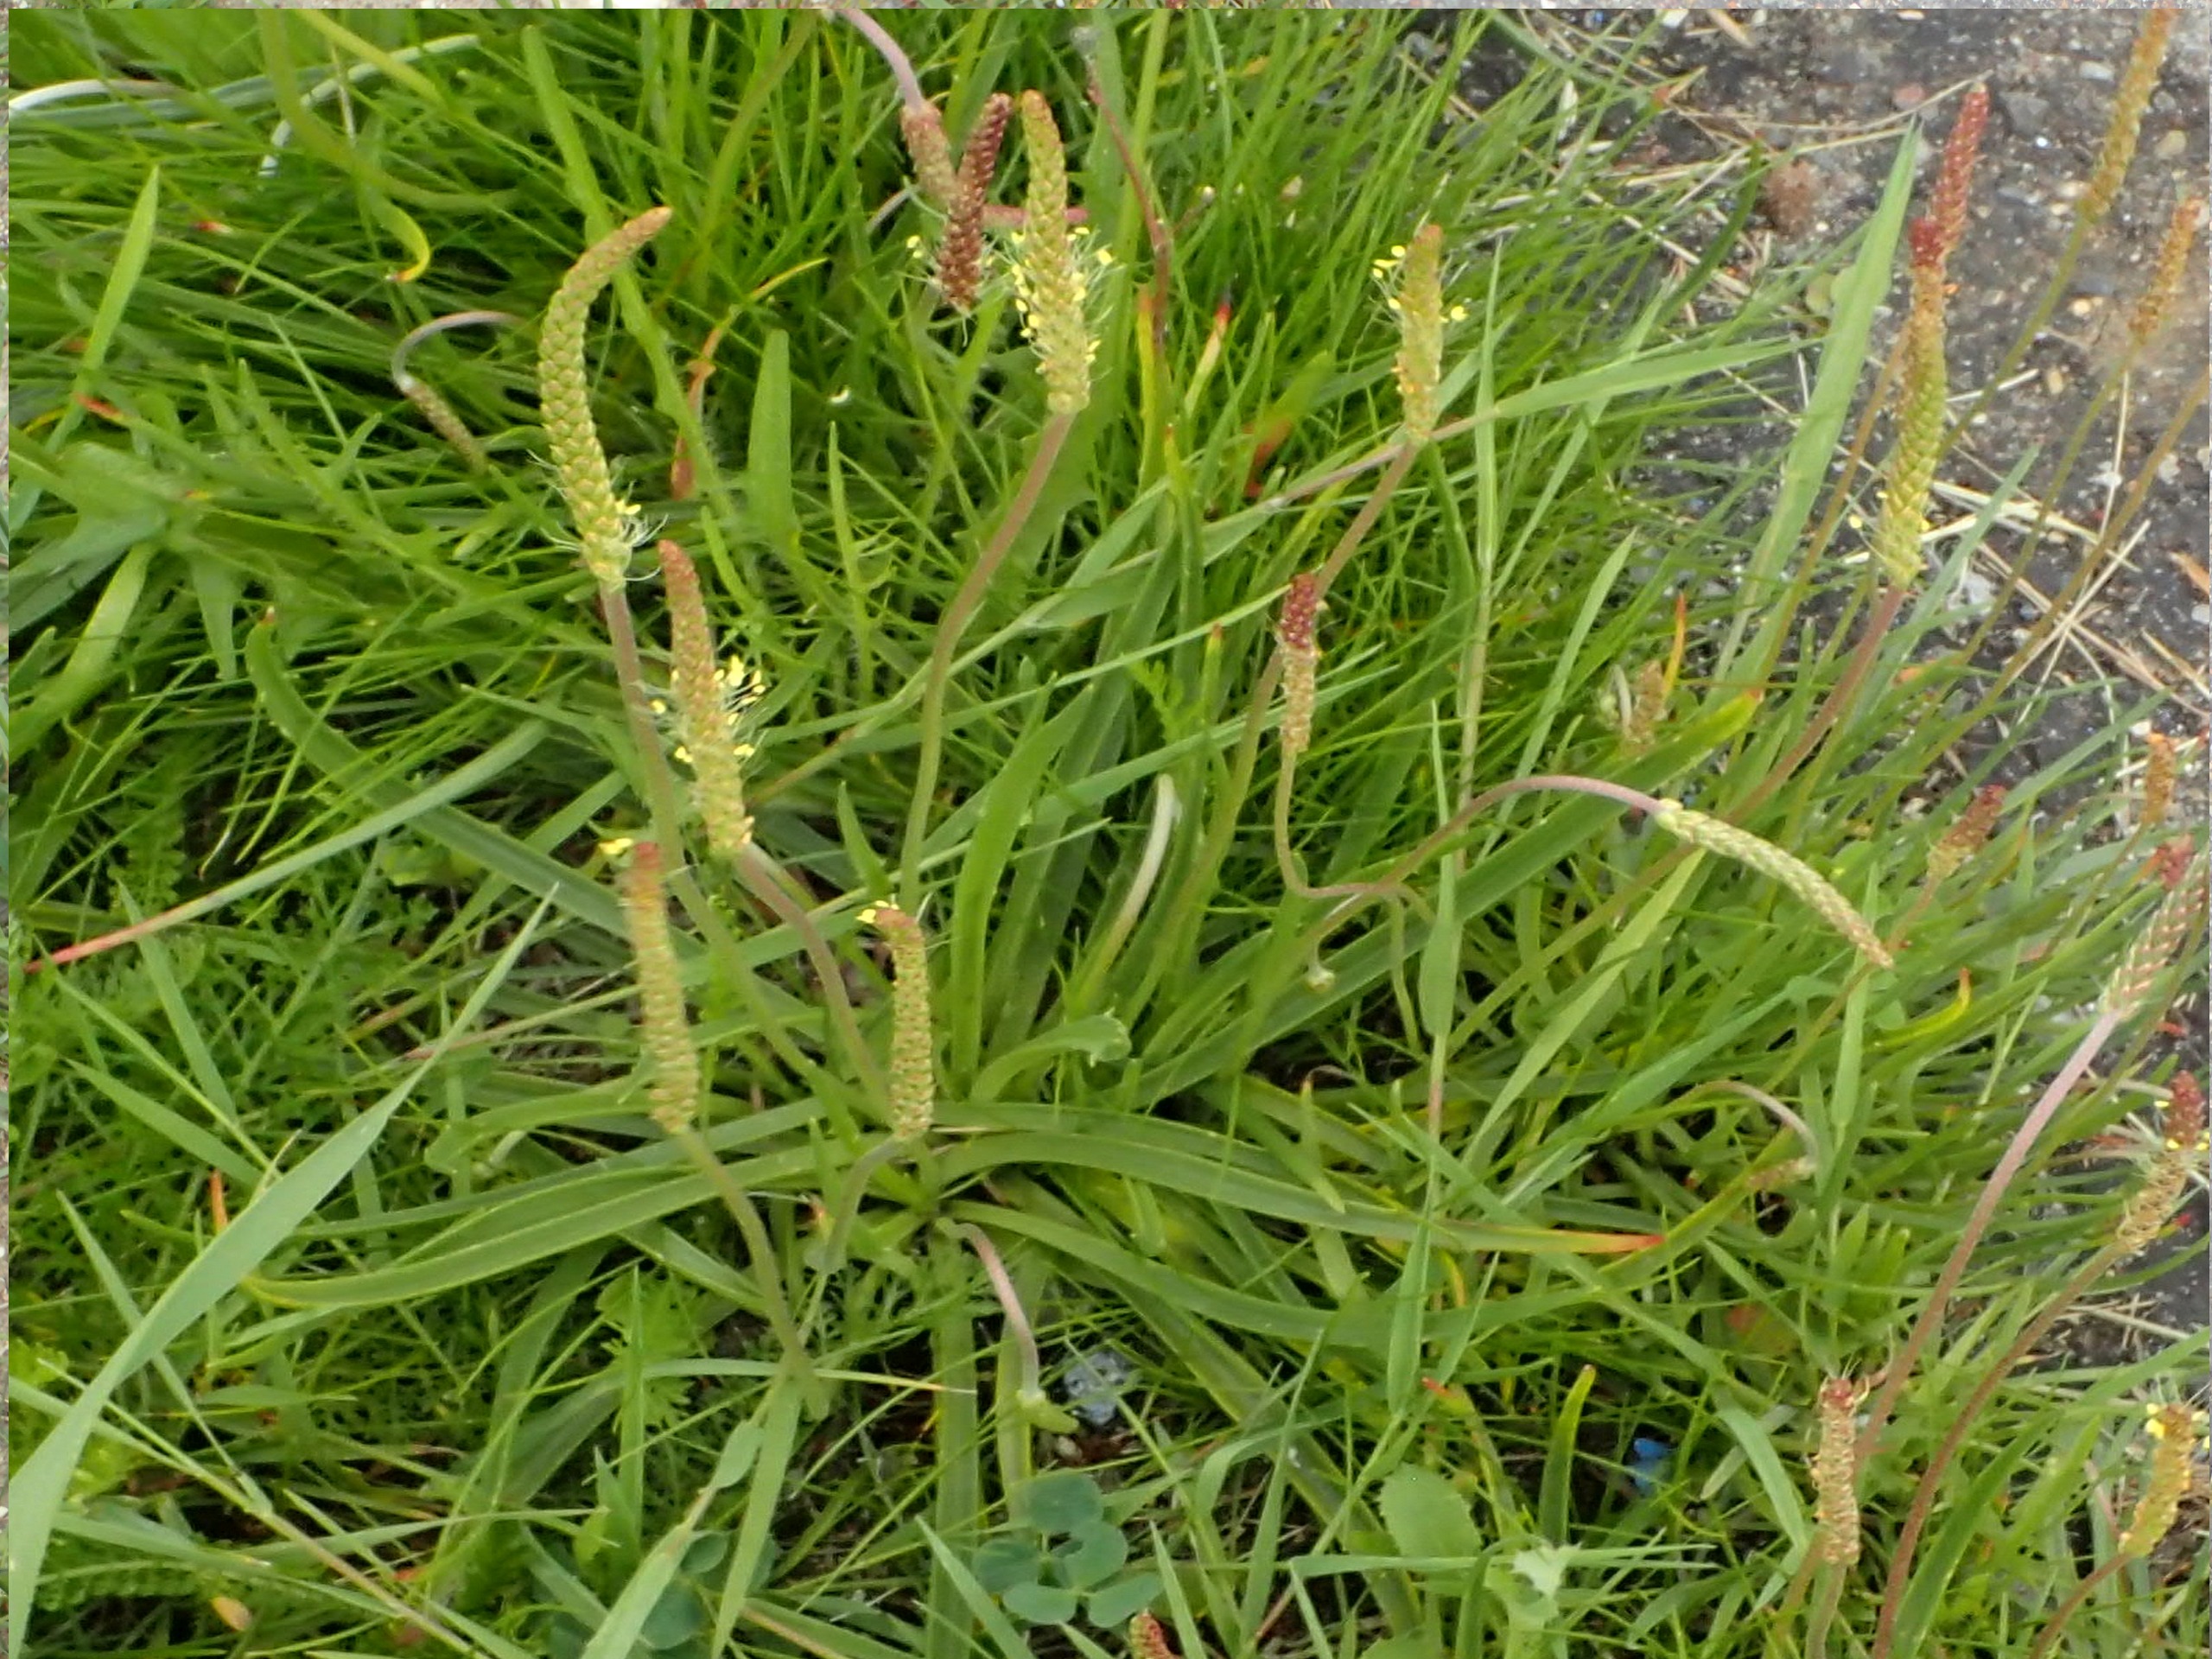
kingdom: Plantae
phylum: Tracheophyta
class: Magnoliopsida
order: Lamiales
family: Plantaginaceae
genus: Plantago
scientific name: Plantago maritima
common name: Strand-vejbred
